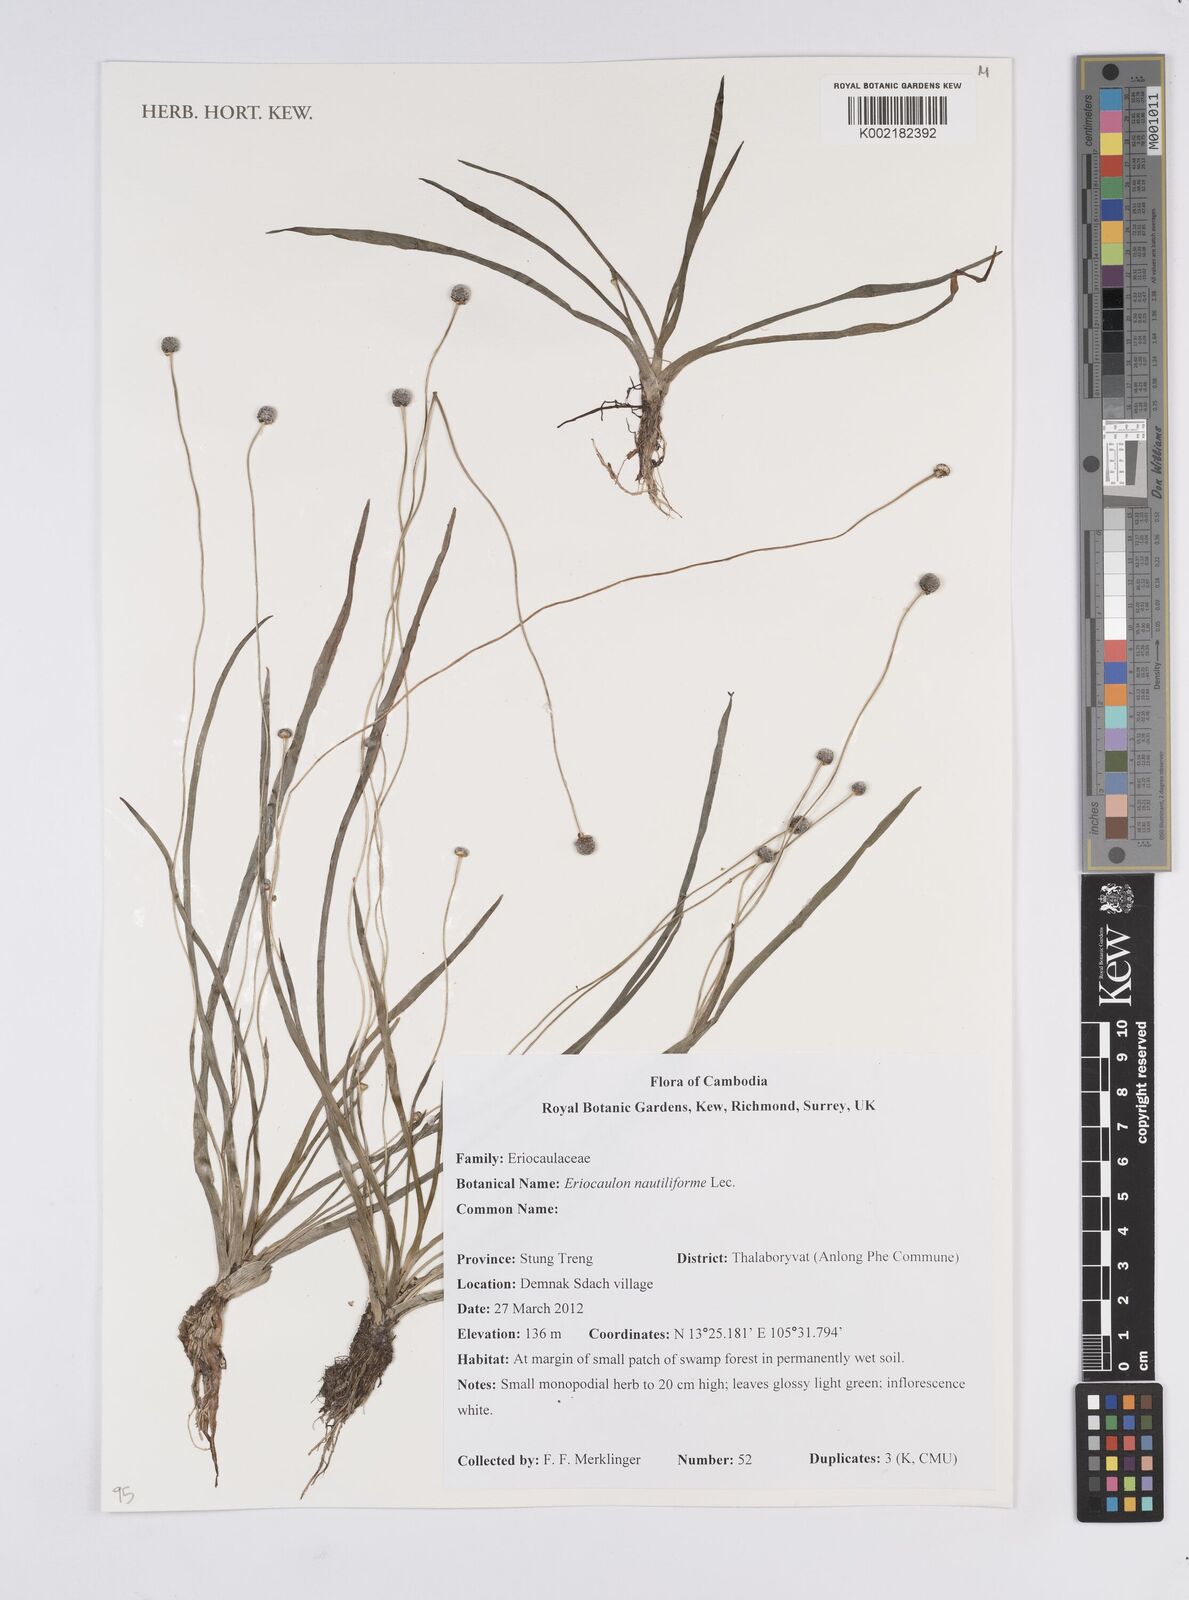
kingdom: Plantae
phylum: Tracheophyta
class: Liliopsida
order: Poales
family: Eriocaulaceae
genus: Eriocaulon
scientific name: Eriocaulon nautiliforme
